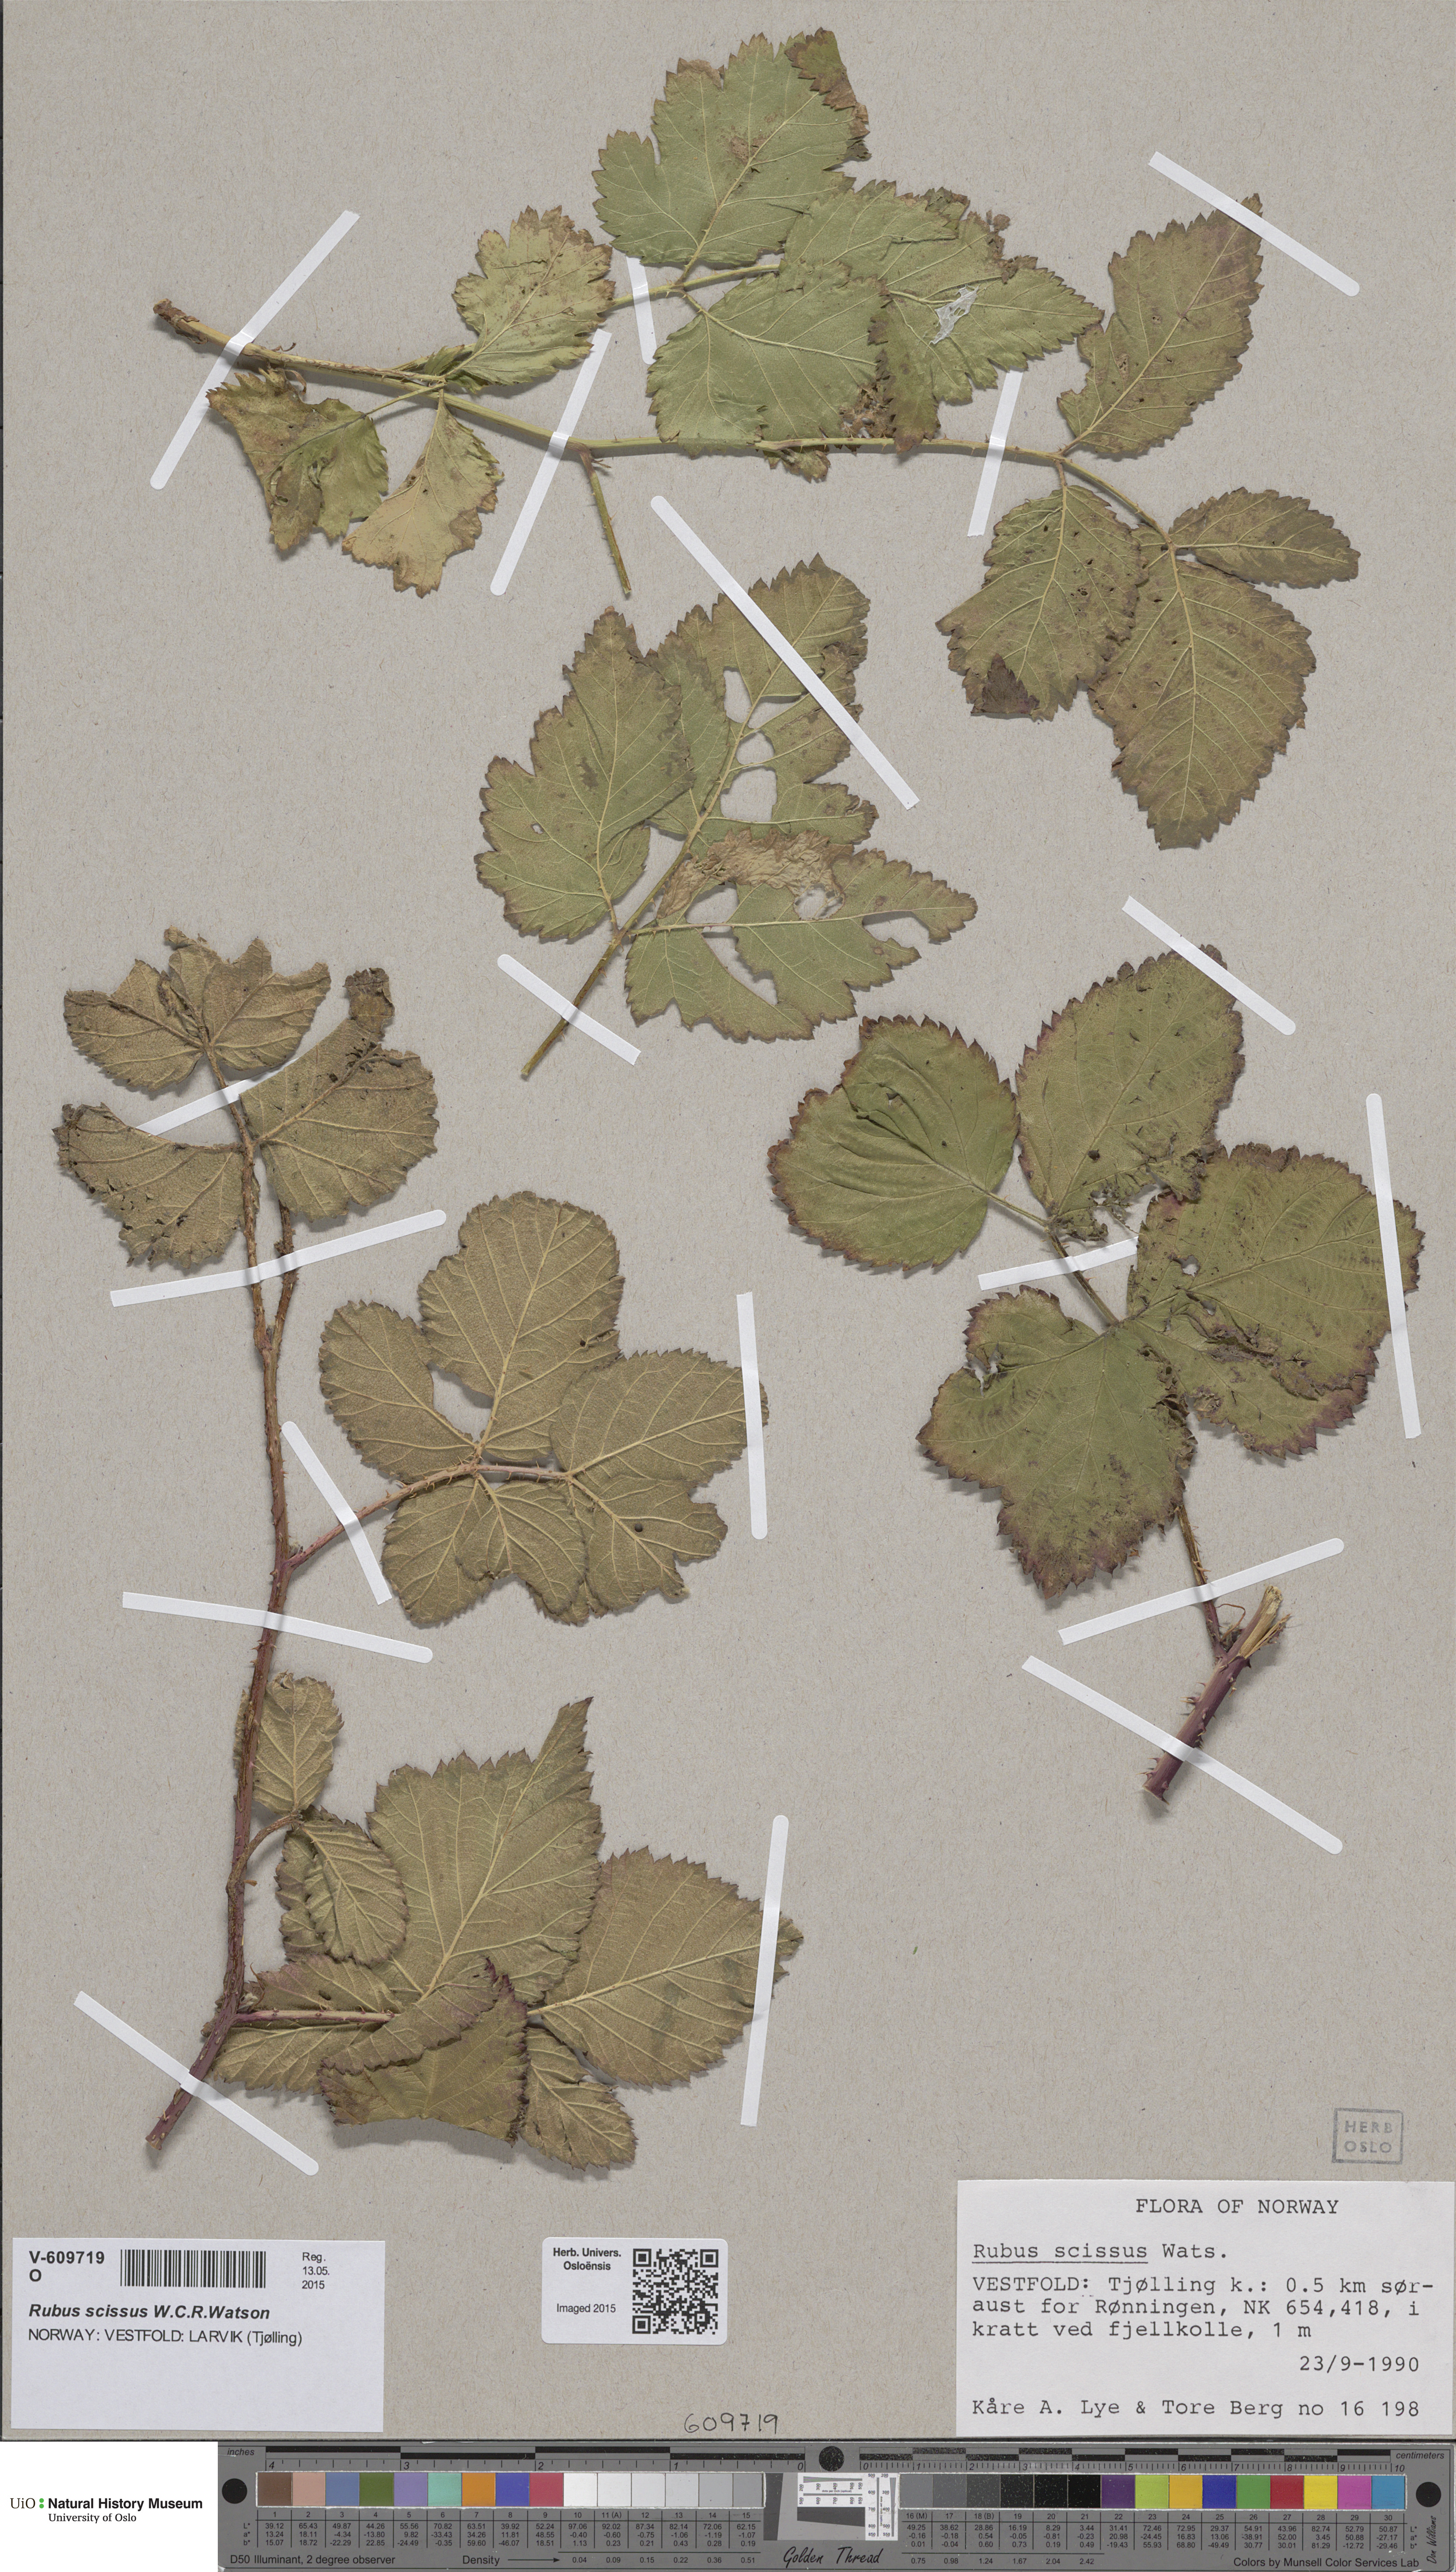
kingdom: Plantae
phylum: Tracheophyta
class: Magnoliopsida
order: Rosales
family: Rosaceae
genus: Rubus
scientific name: Rubus scissus
